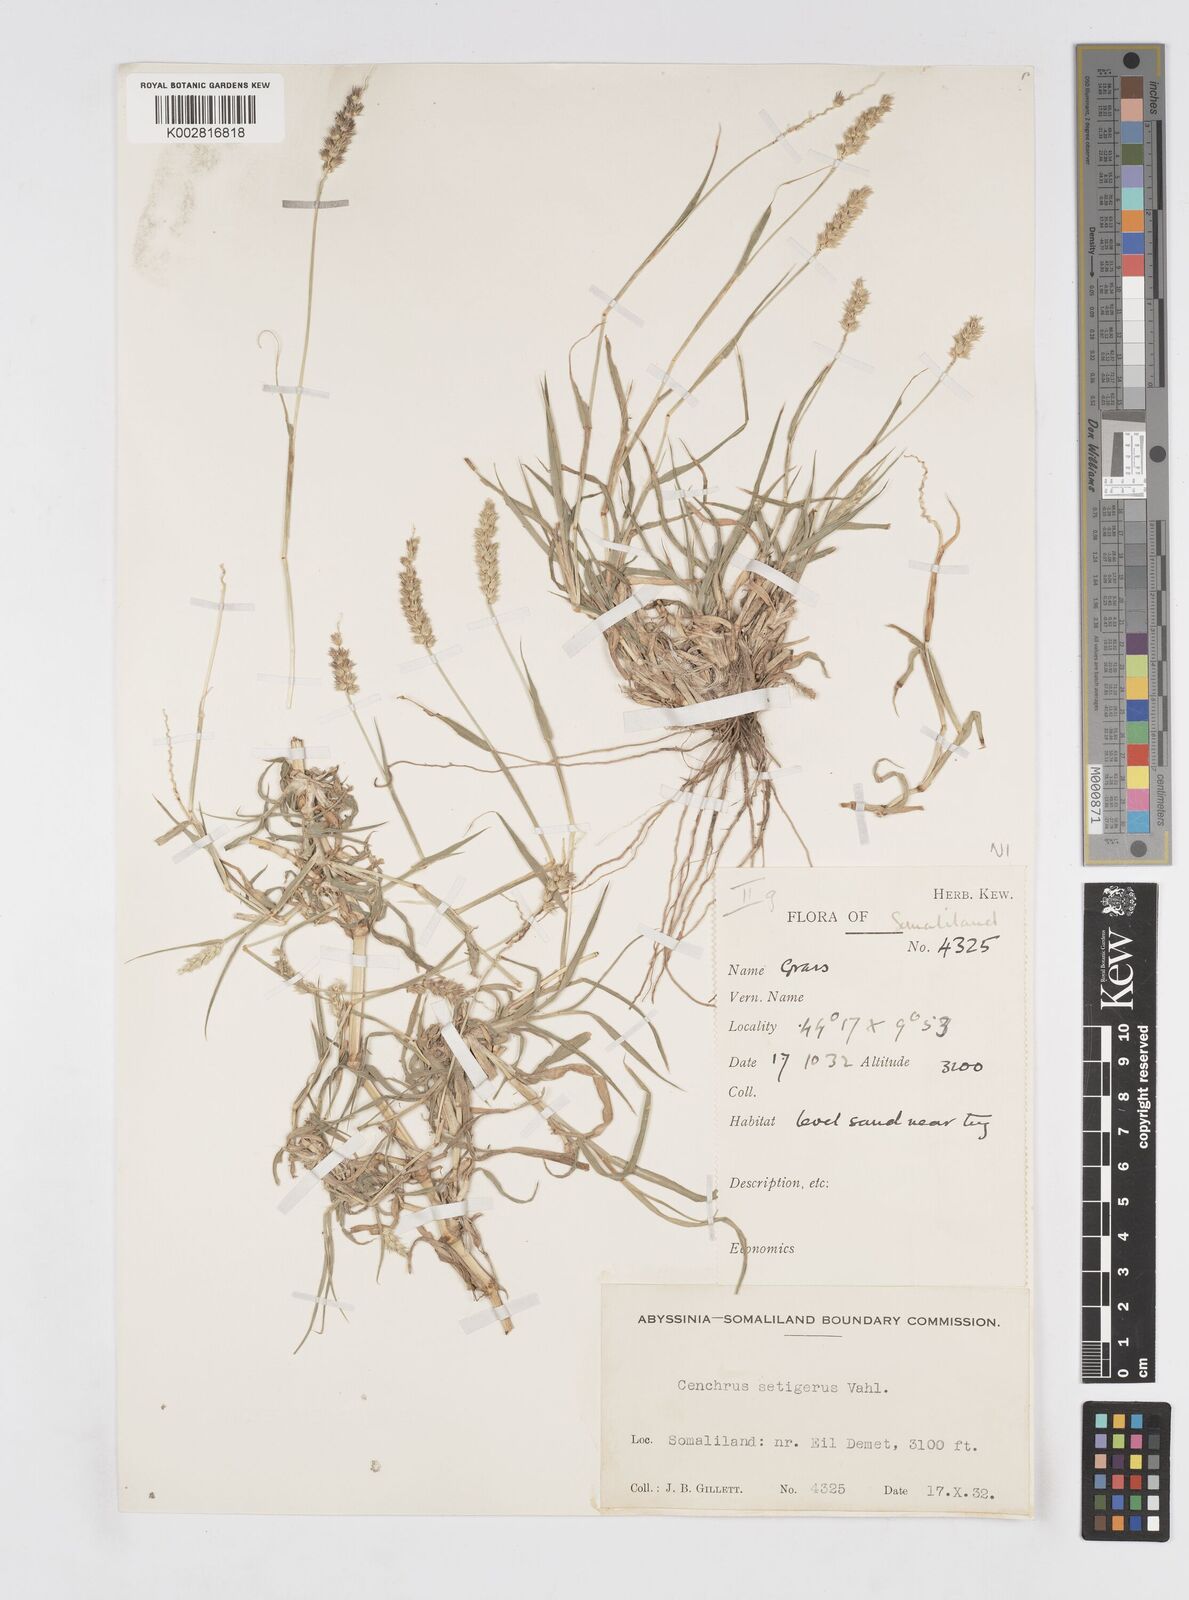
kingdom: Plantae
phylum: Tracheophyta
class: Liliopsida
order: Poales
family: Poaceae
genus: Cenchrus
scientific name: Cenchrus setigerus
